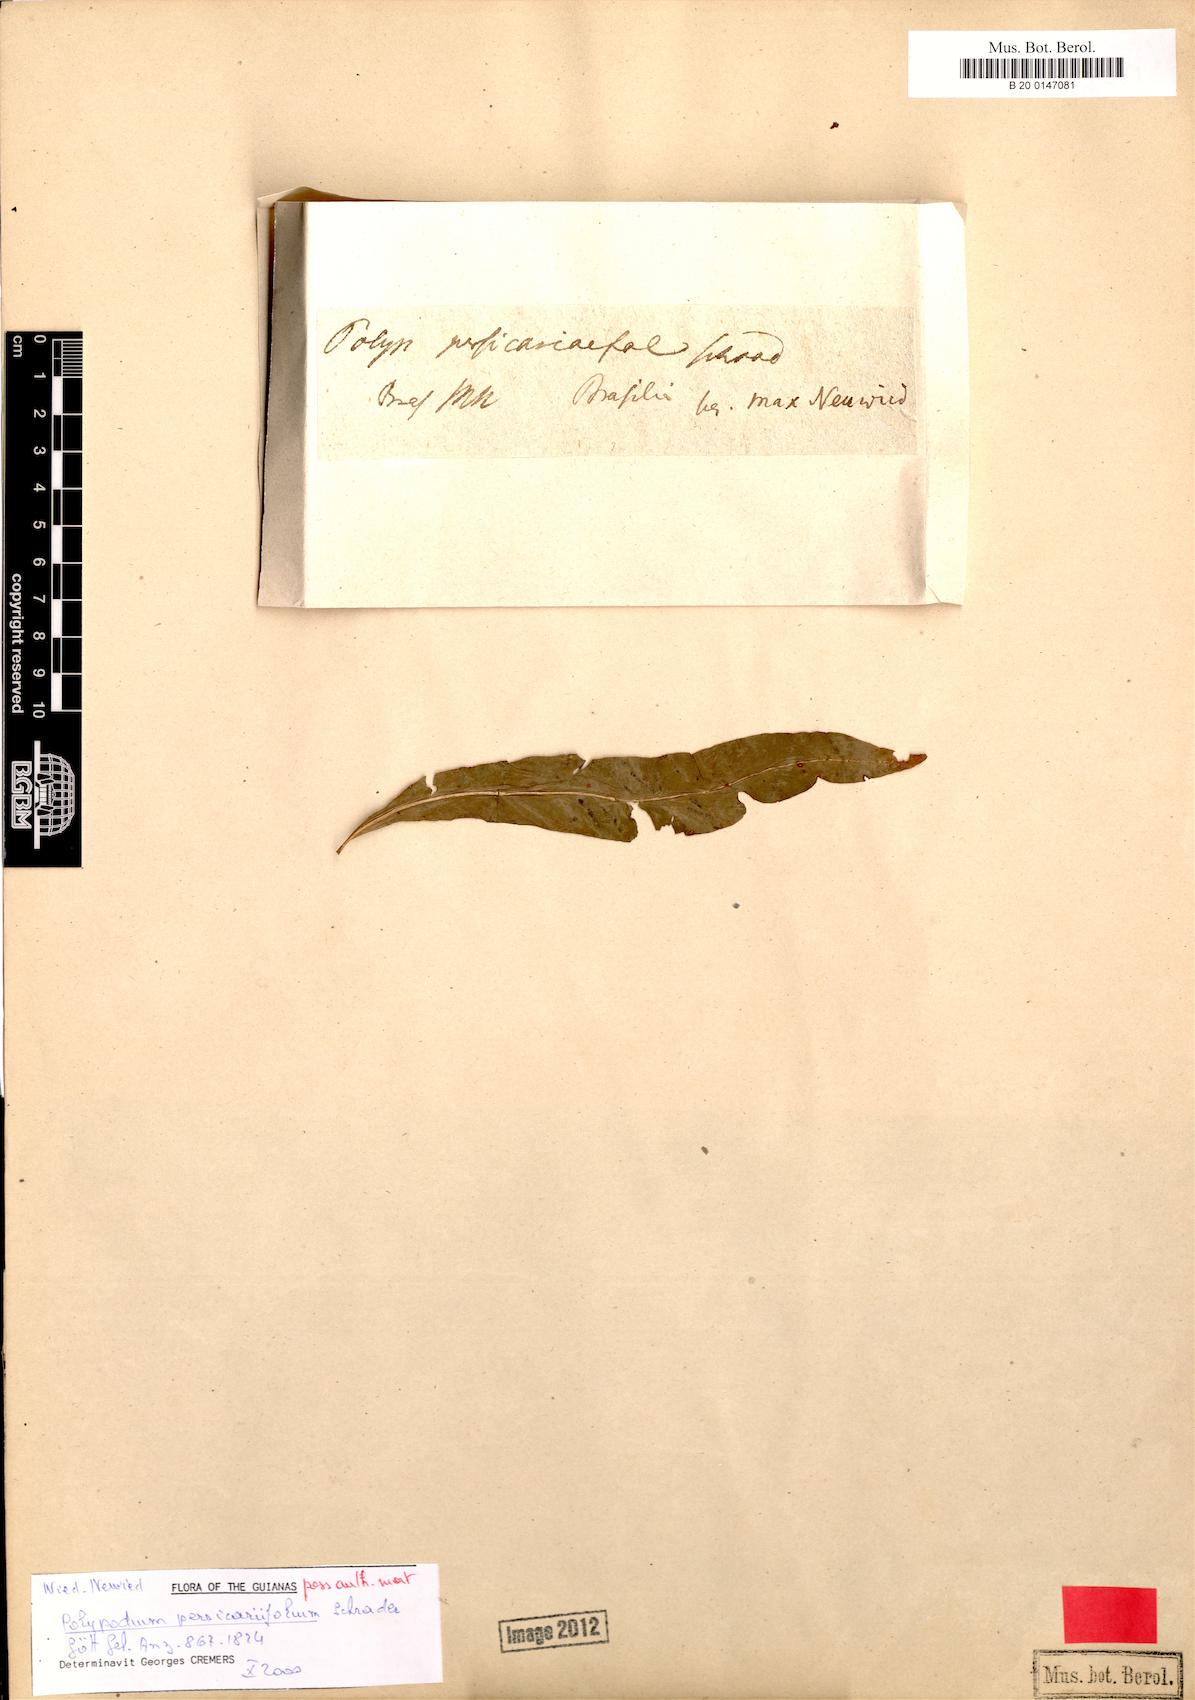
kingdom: Plantae
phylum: Tracheophyta
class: Polypodiopsida
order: Polypodiales
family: Polypodiaceae
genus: Microgramma
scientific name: Microgramma persicariifolia
